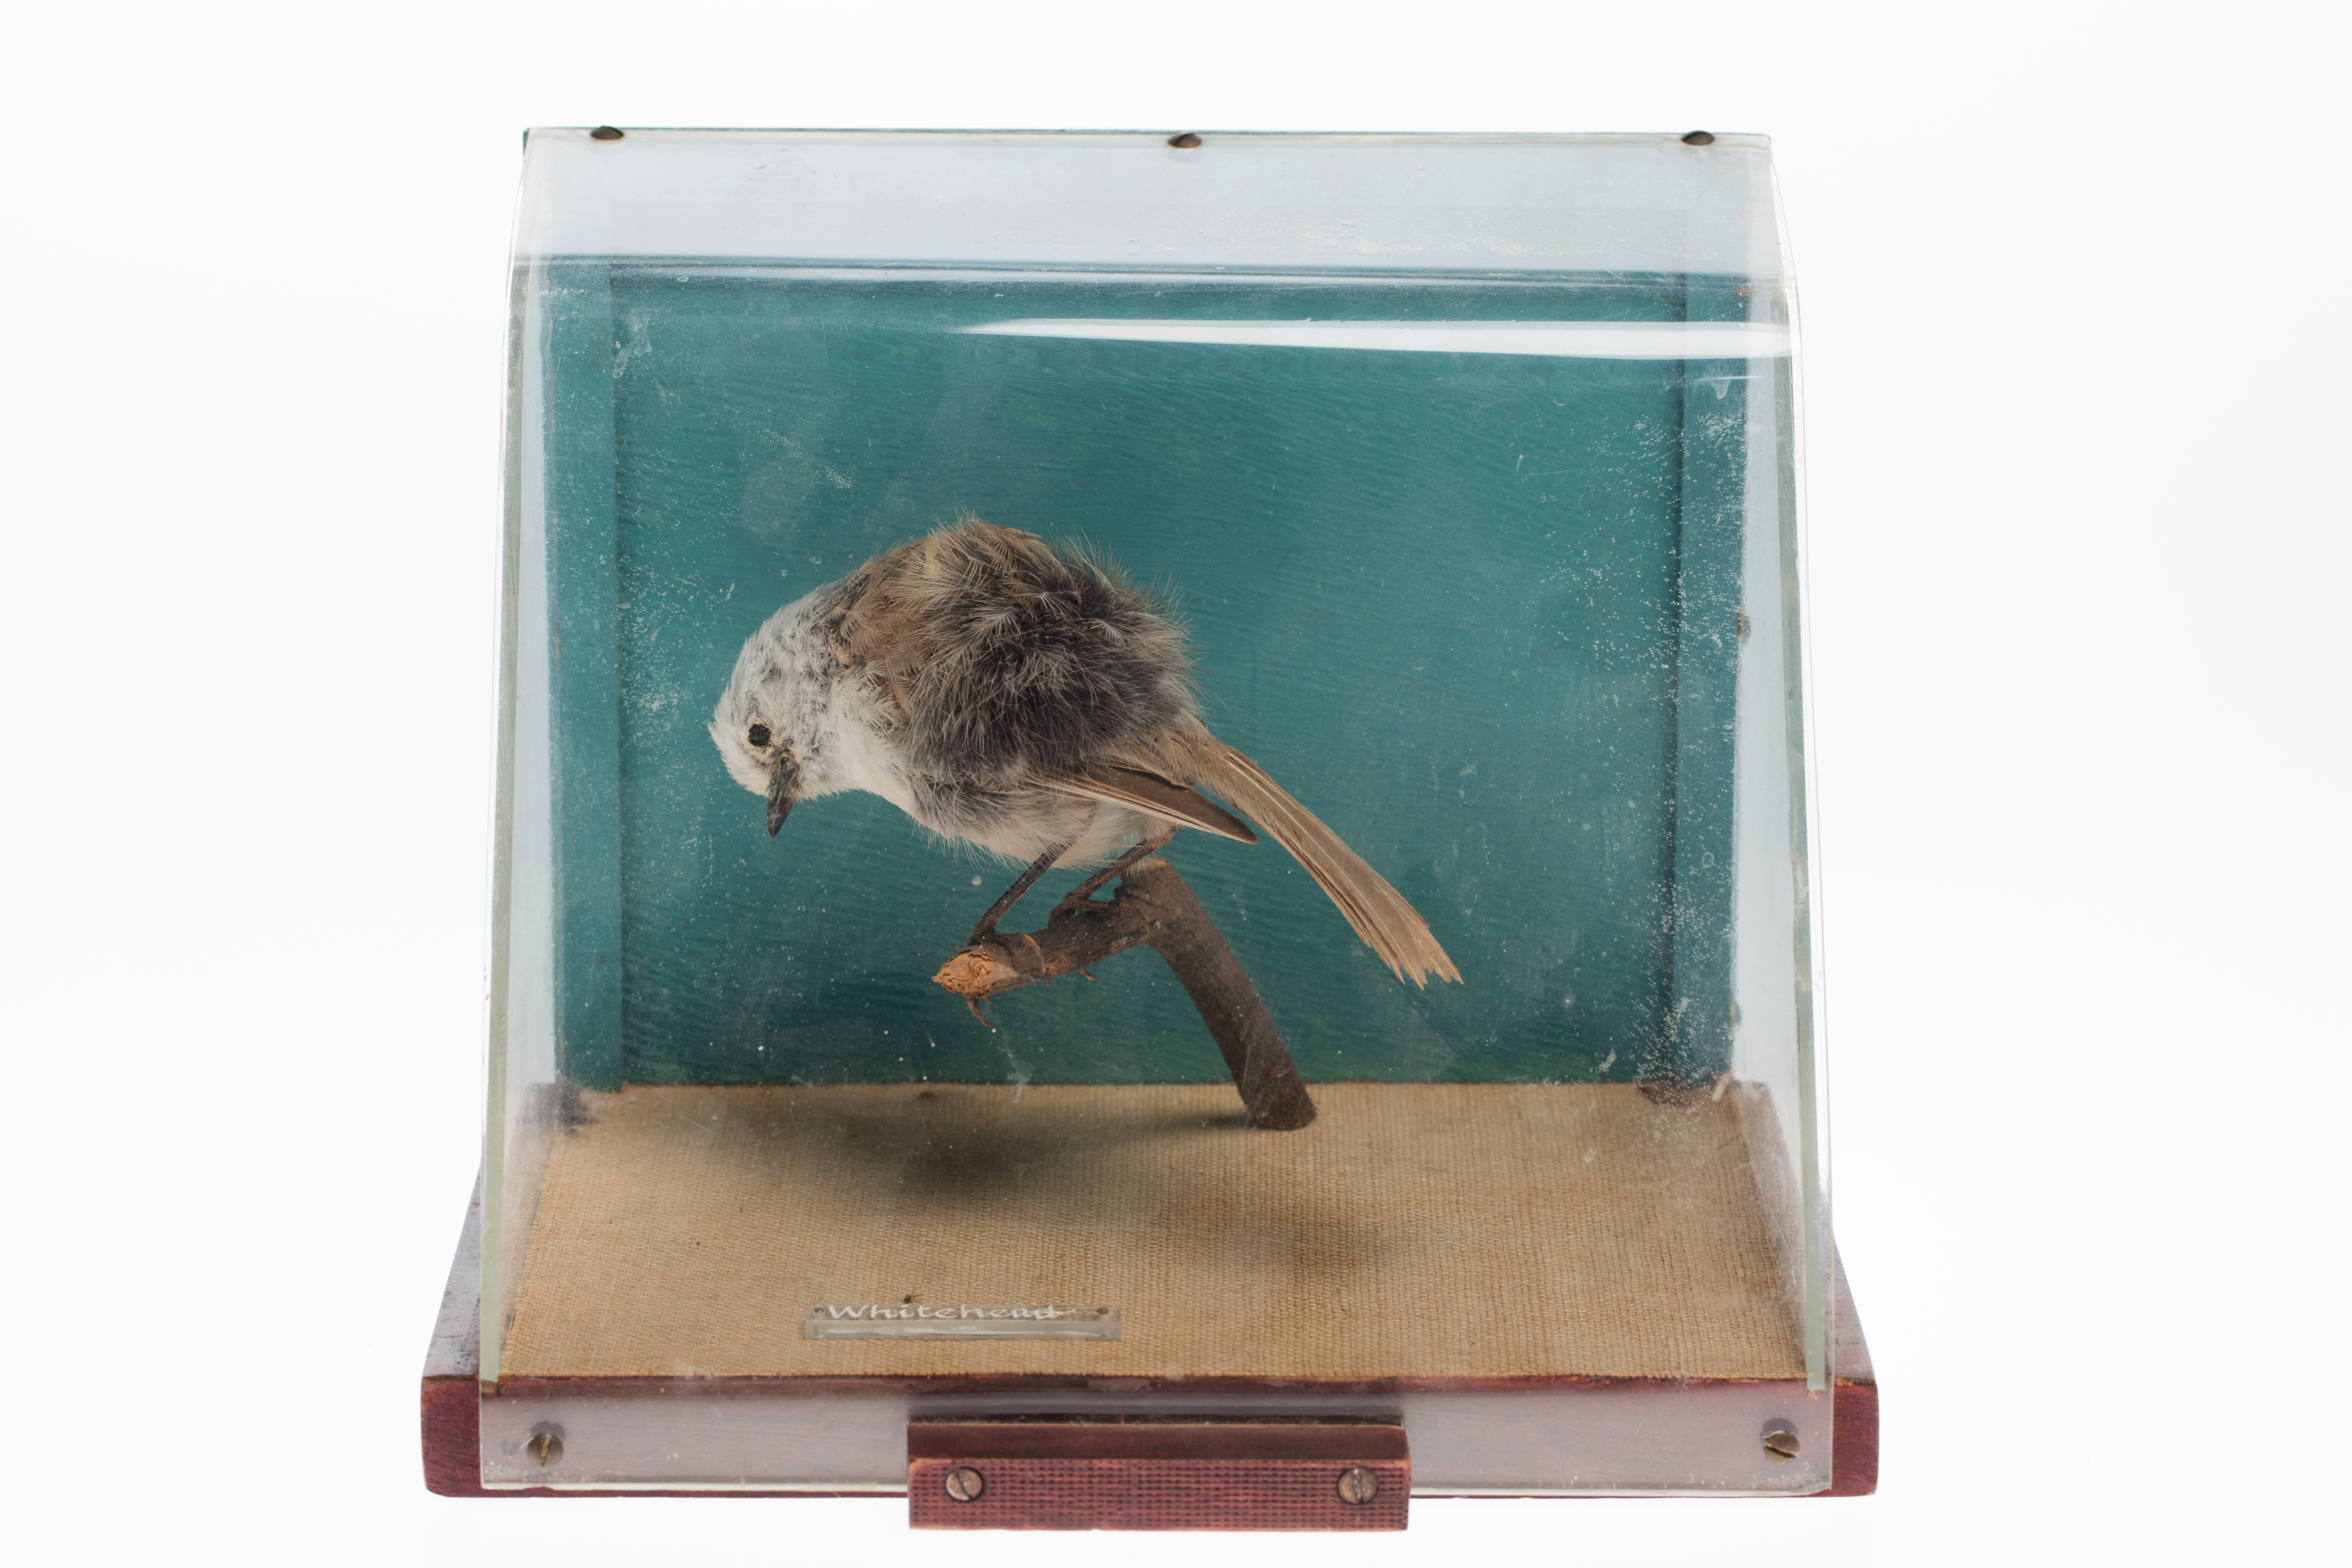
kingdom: Animalia
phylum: Chordata
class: Aves
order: Passeriformes
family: Acanthizidae
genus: Mohoua
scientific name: Mohoua albicilla
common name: Whitehead
